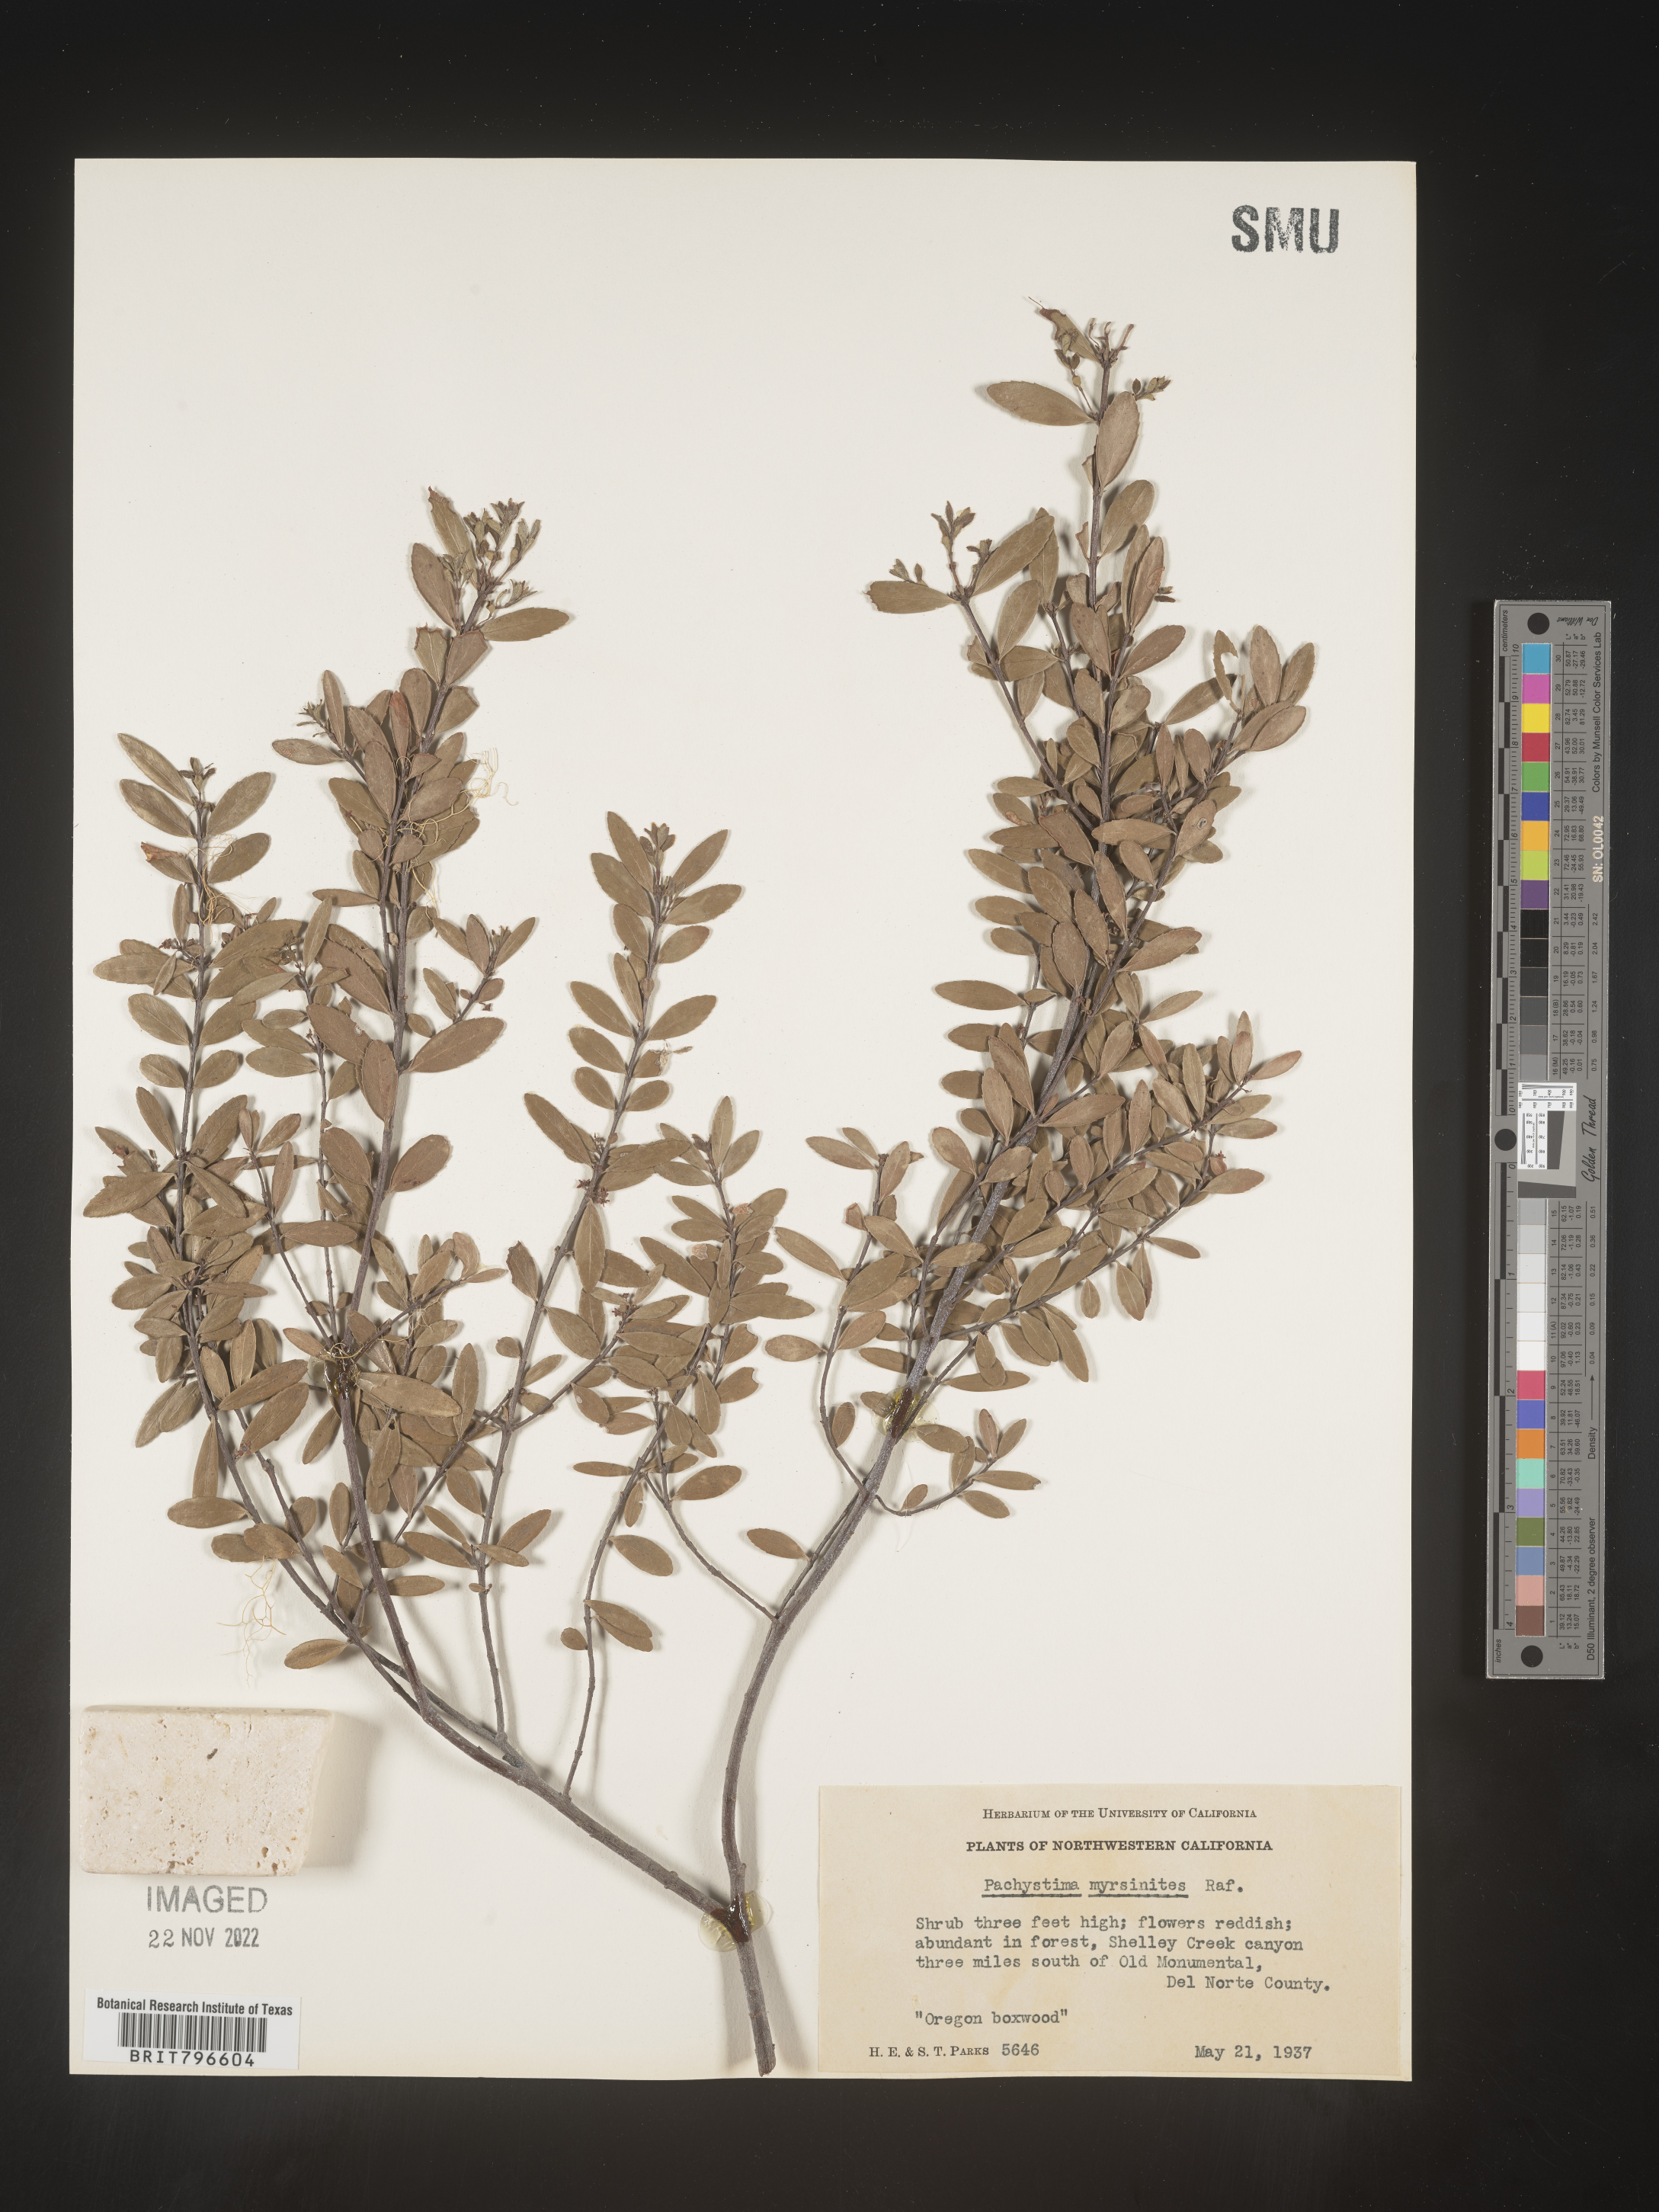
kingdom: Plantae
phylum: Tracheophyta
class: Magnoliopsida
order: Celastrales
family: Celastraceae
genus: Paxistima
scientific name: Paxistima myrsinites
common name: Mountain-lover
